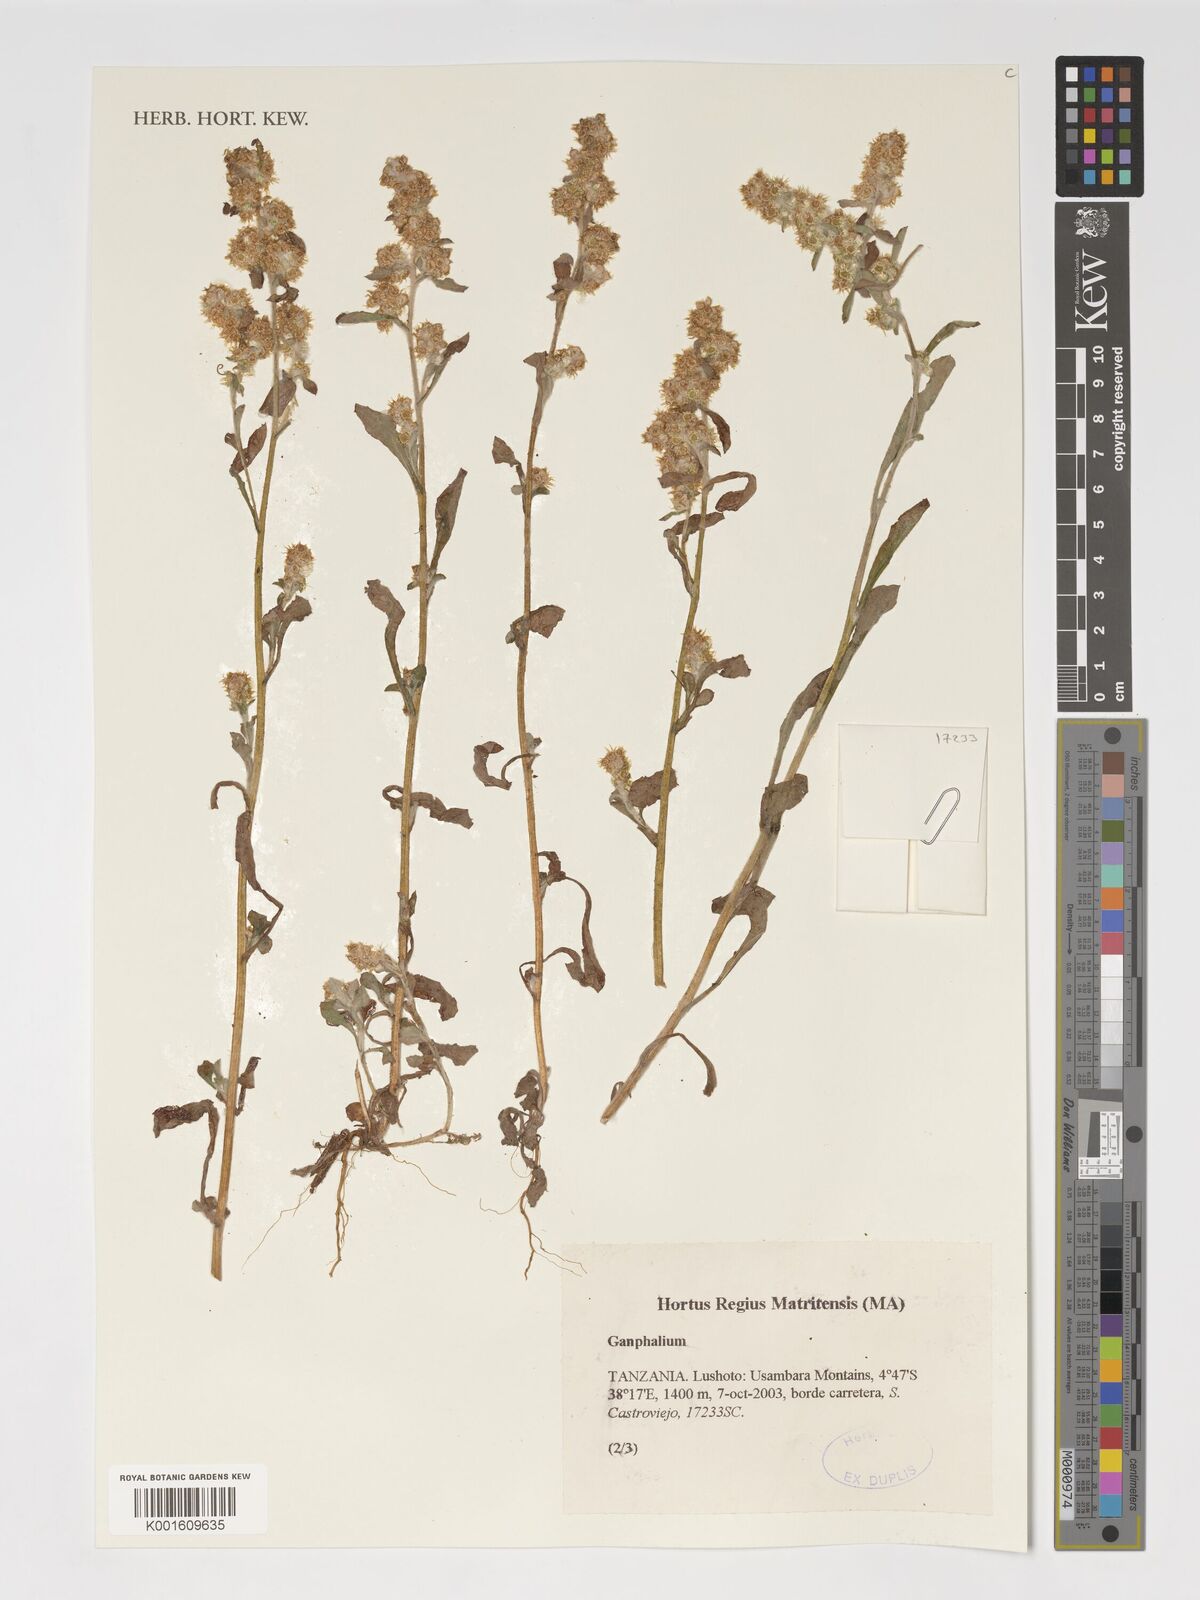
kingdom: Plantae
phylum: Tracheophyta
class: Magnoliopsida
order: Asterales
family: Asteraceae
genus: Gnaphalium
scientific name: Gnaphalium
